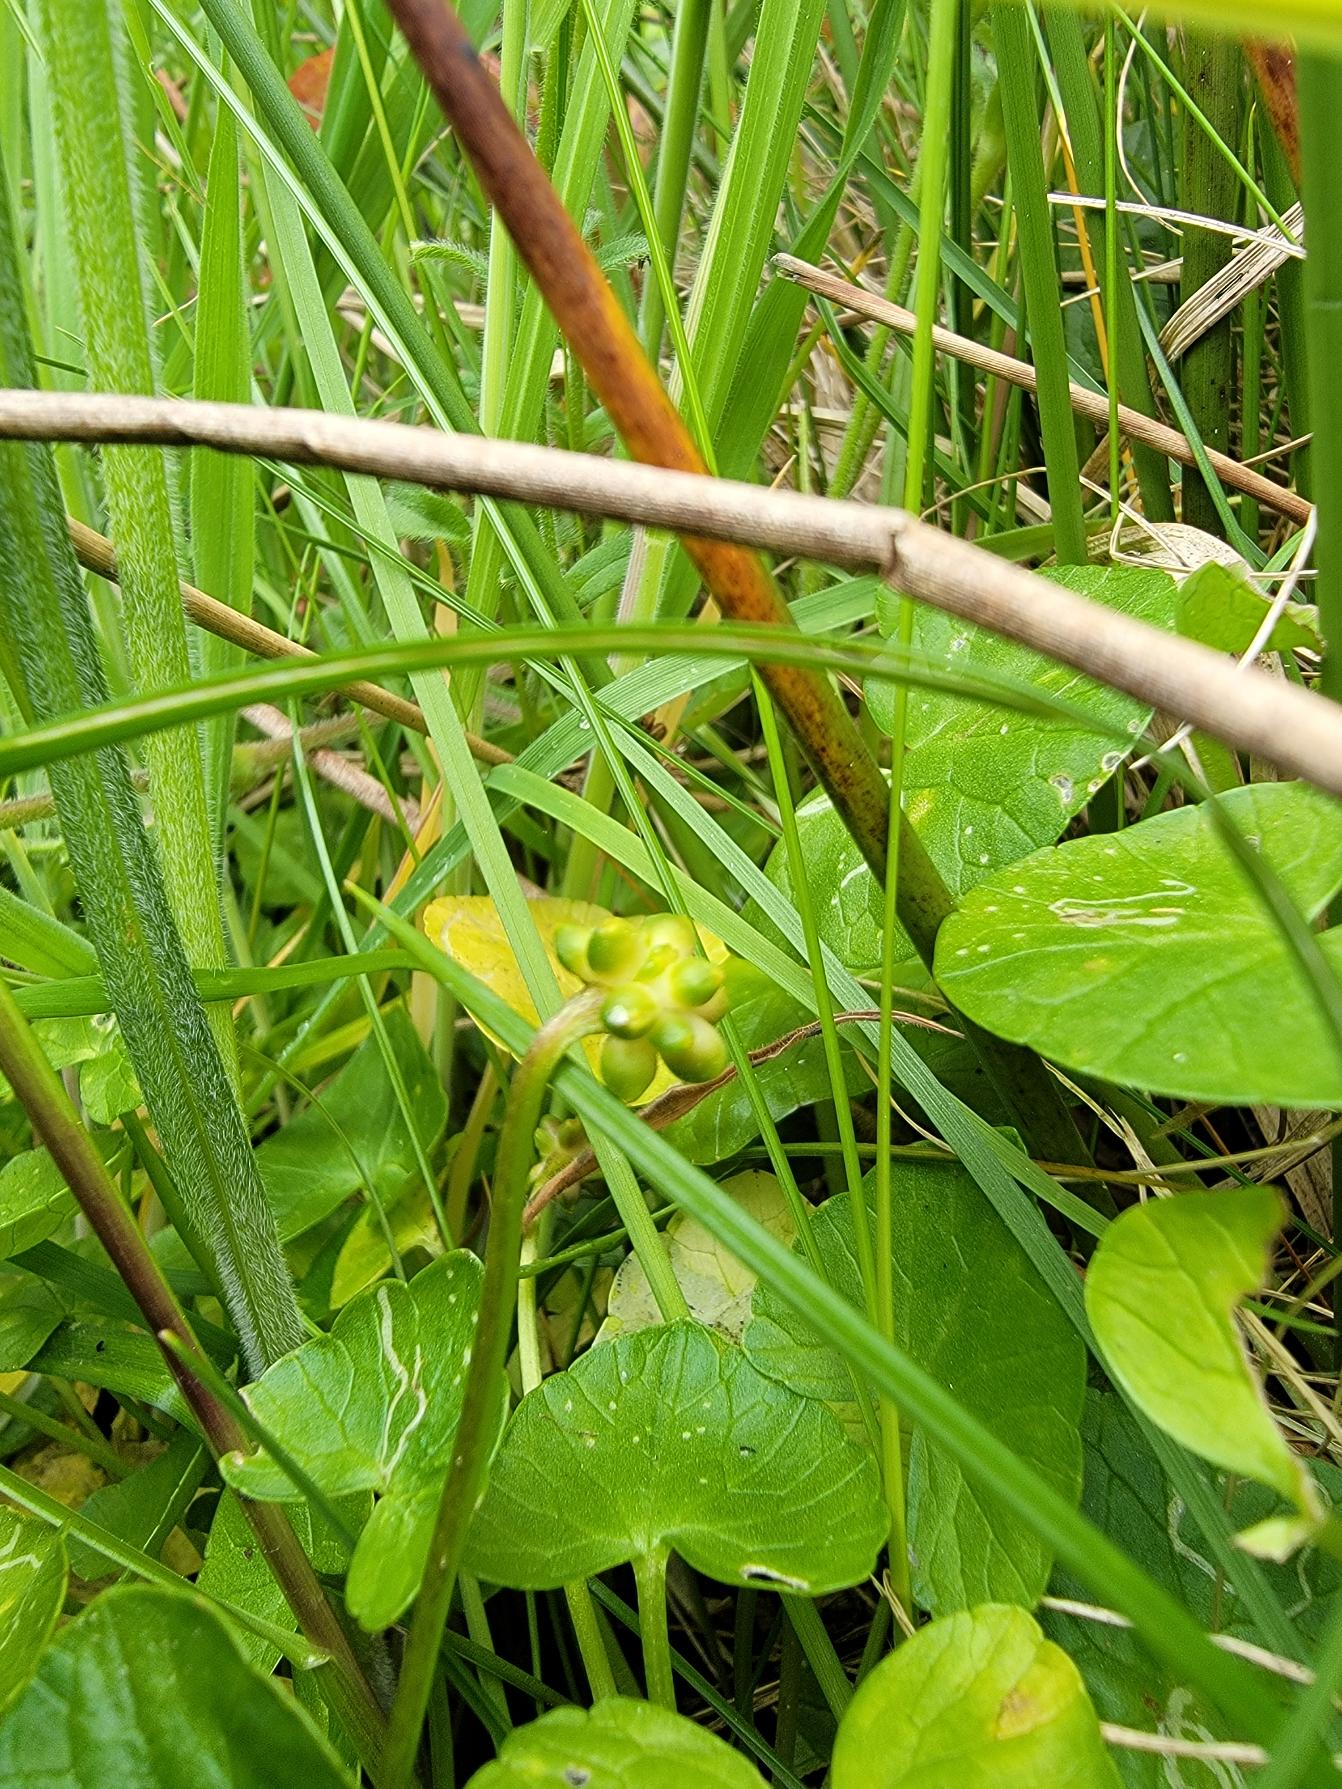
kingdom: Plantae
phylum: Tracheophyta
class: Magnoliopsida
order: Ranunculales
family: Ranunculaceae
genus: Ficaria
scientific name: Ficaria ambigua
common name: Limfjords-vorterod
